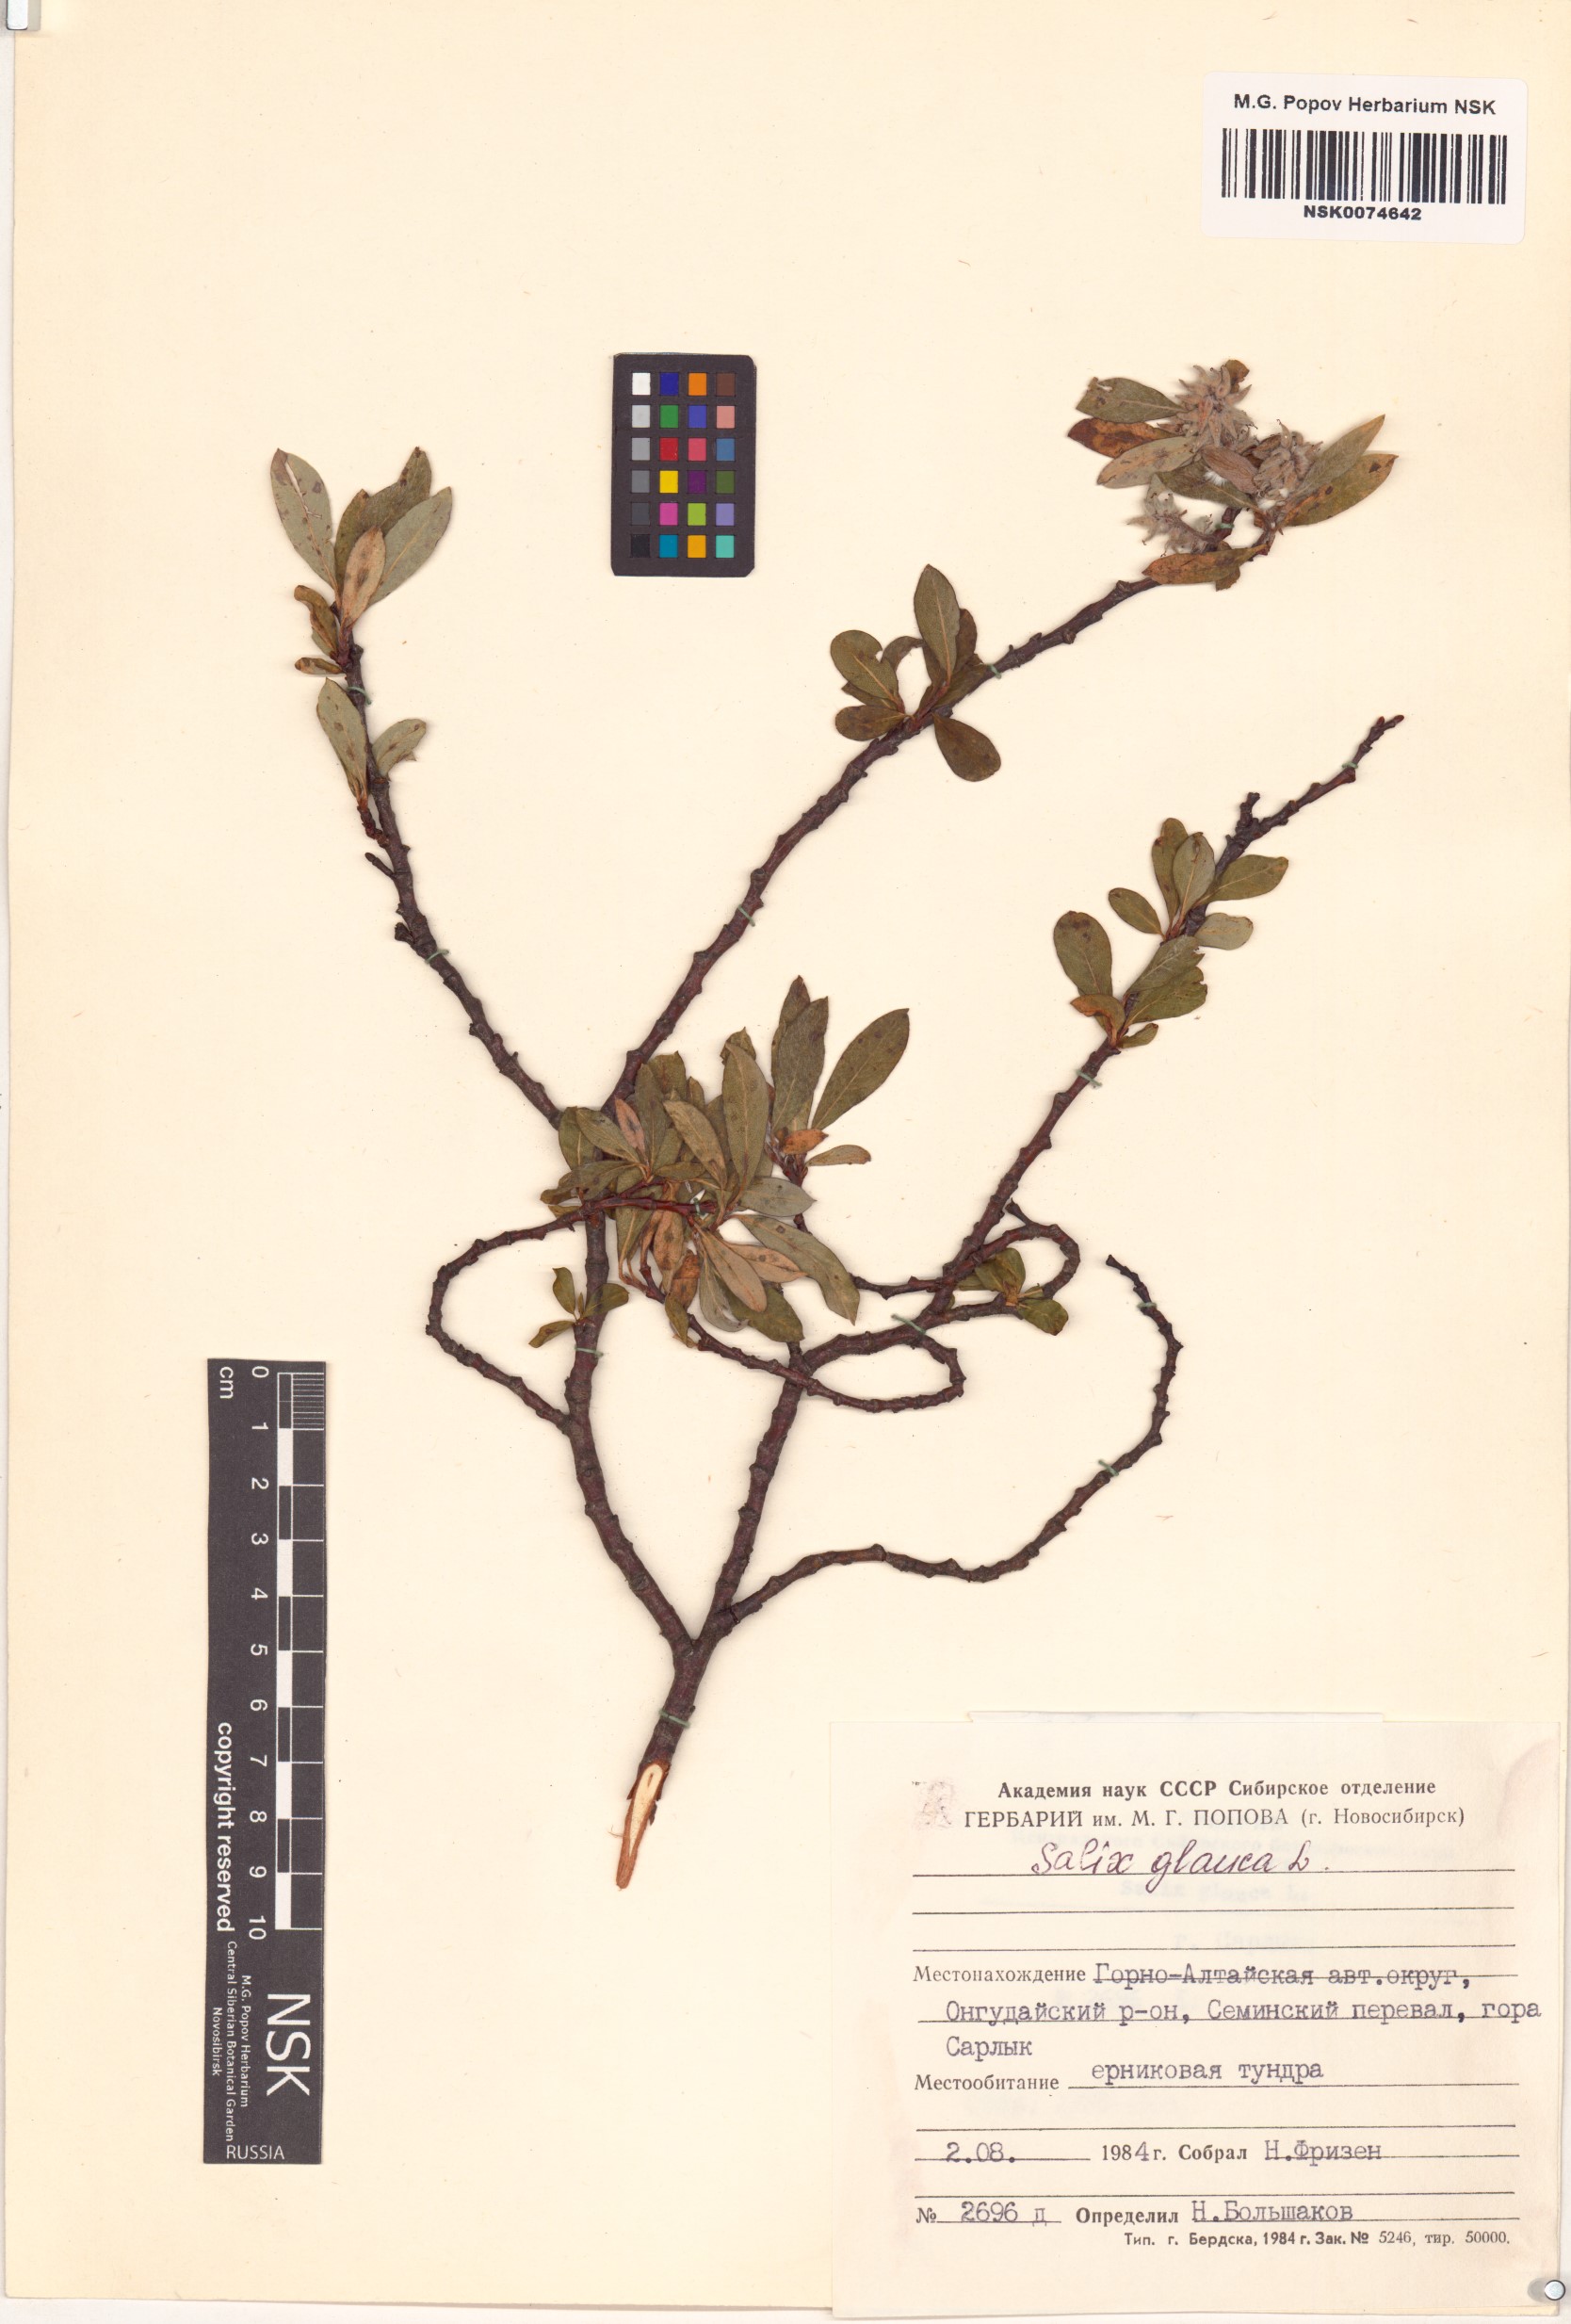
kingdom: Plantae
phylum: Tracheophyta
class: Magnoliopsida
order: Malpighiales
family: Salicaceae
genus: Salix
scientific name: Salix glauca
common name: Glaucous willow
